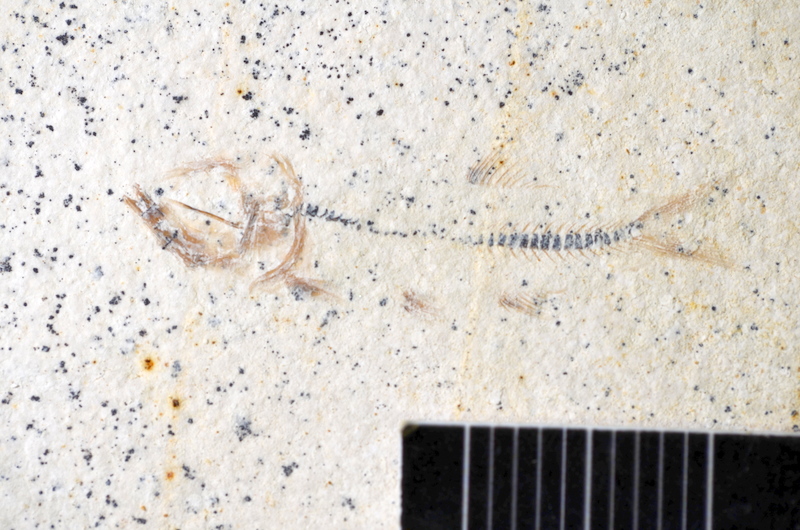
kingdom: Animalia
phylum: Chordata
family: Ascalaboidae
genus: Ebertichthys
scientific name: Ebertichthys ettlingensis
